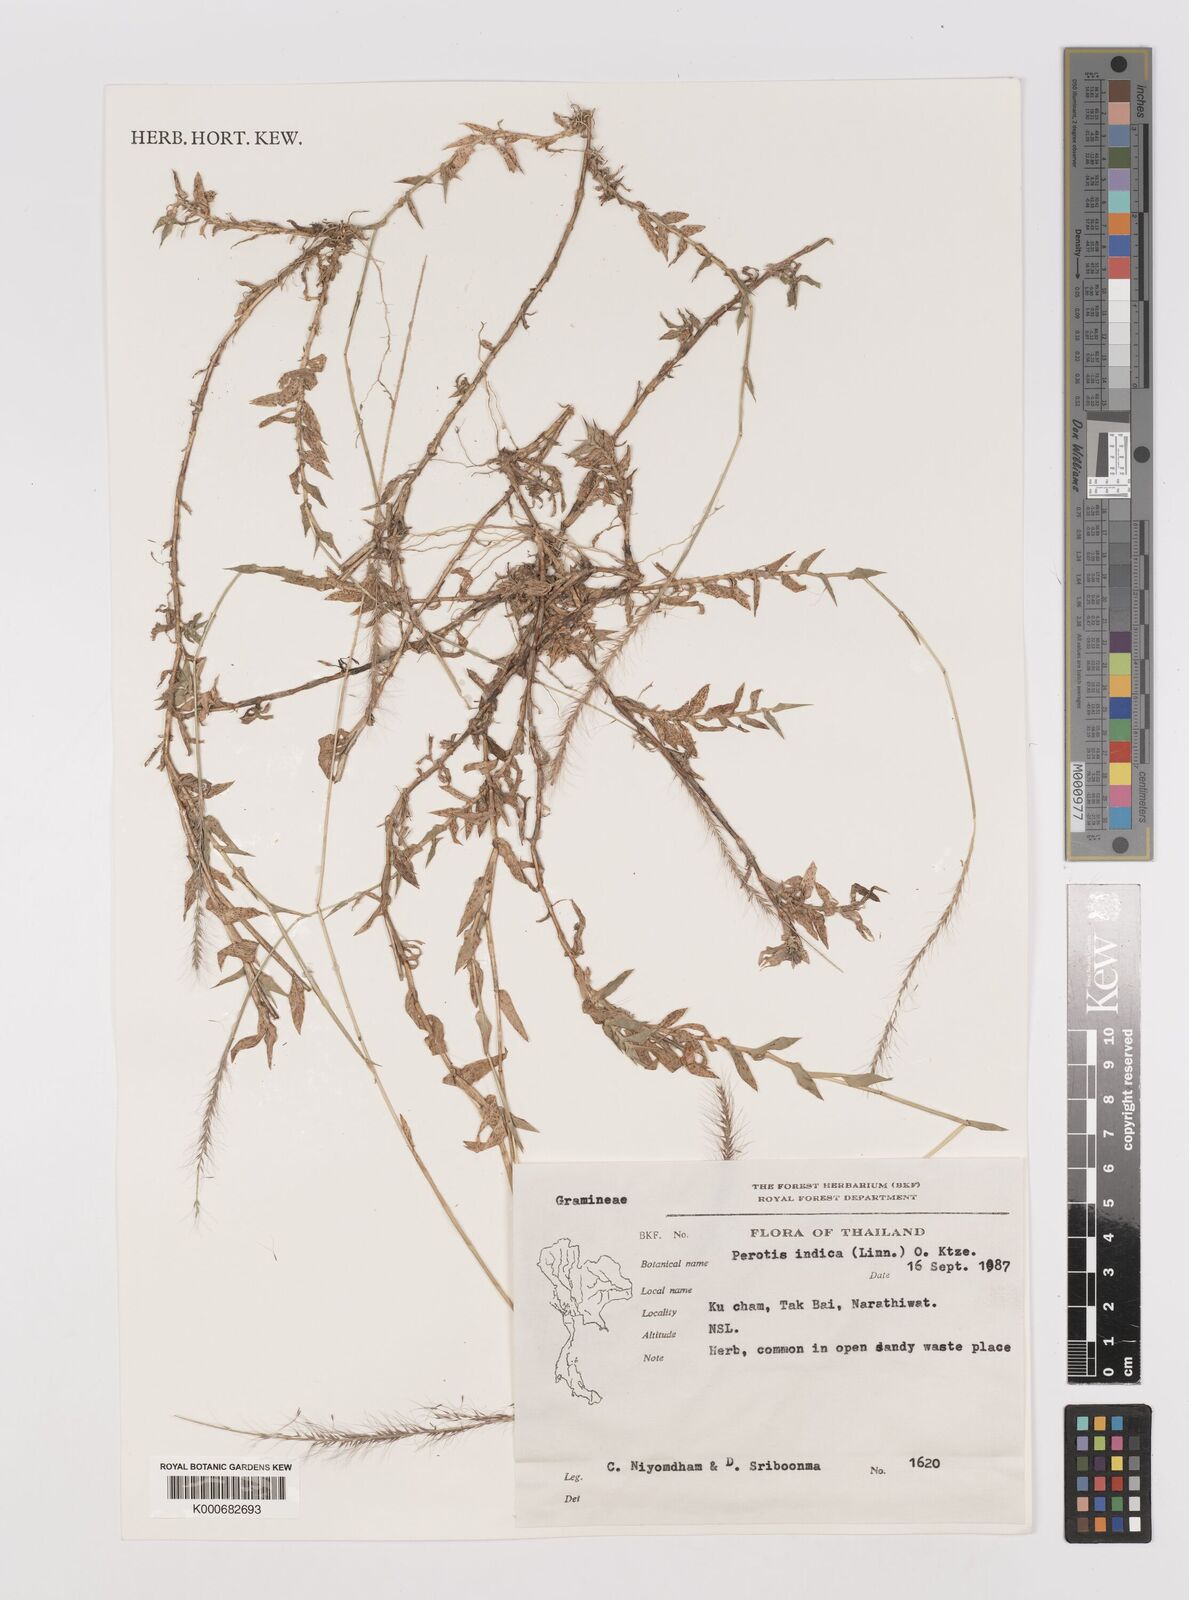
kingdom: Plantae
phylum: Tracheophyta
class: Liliopsida
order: Poales
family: Poaceae
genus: Perotis
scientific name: Perotis indica
